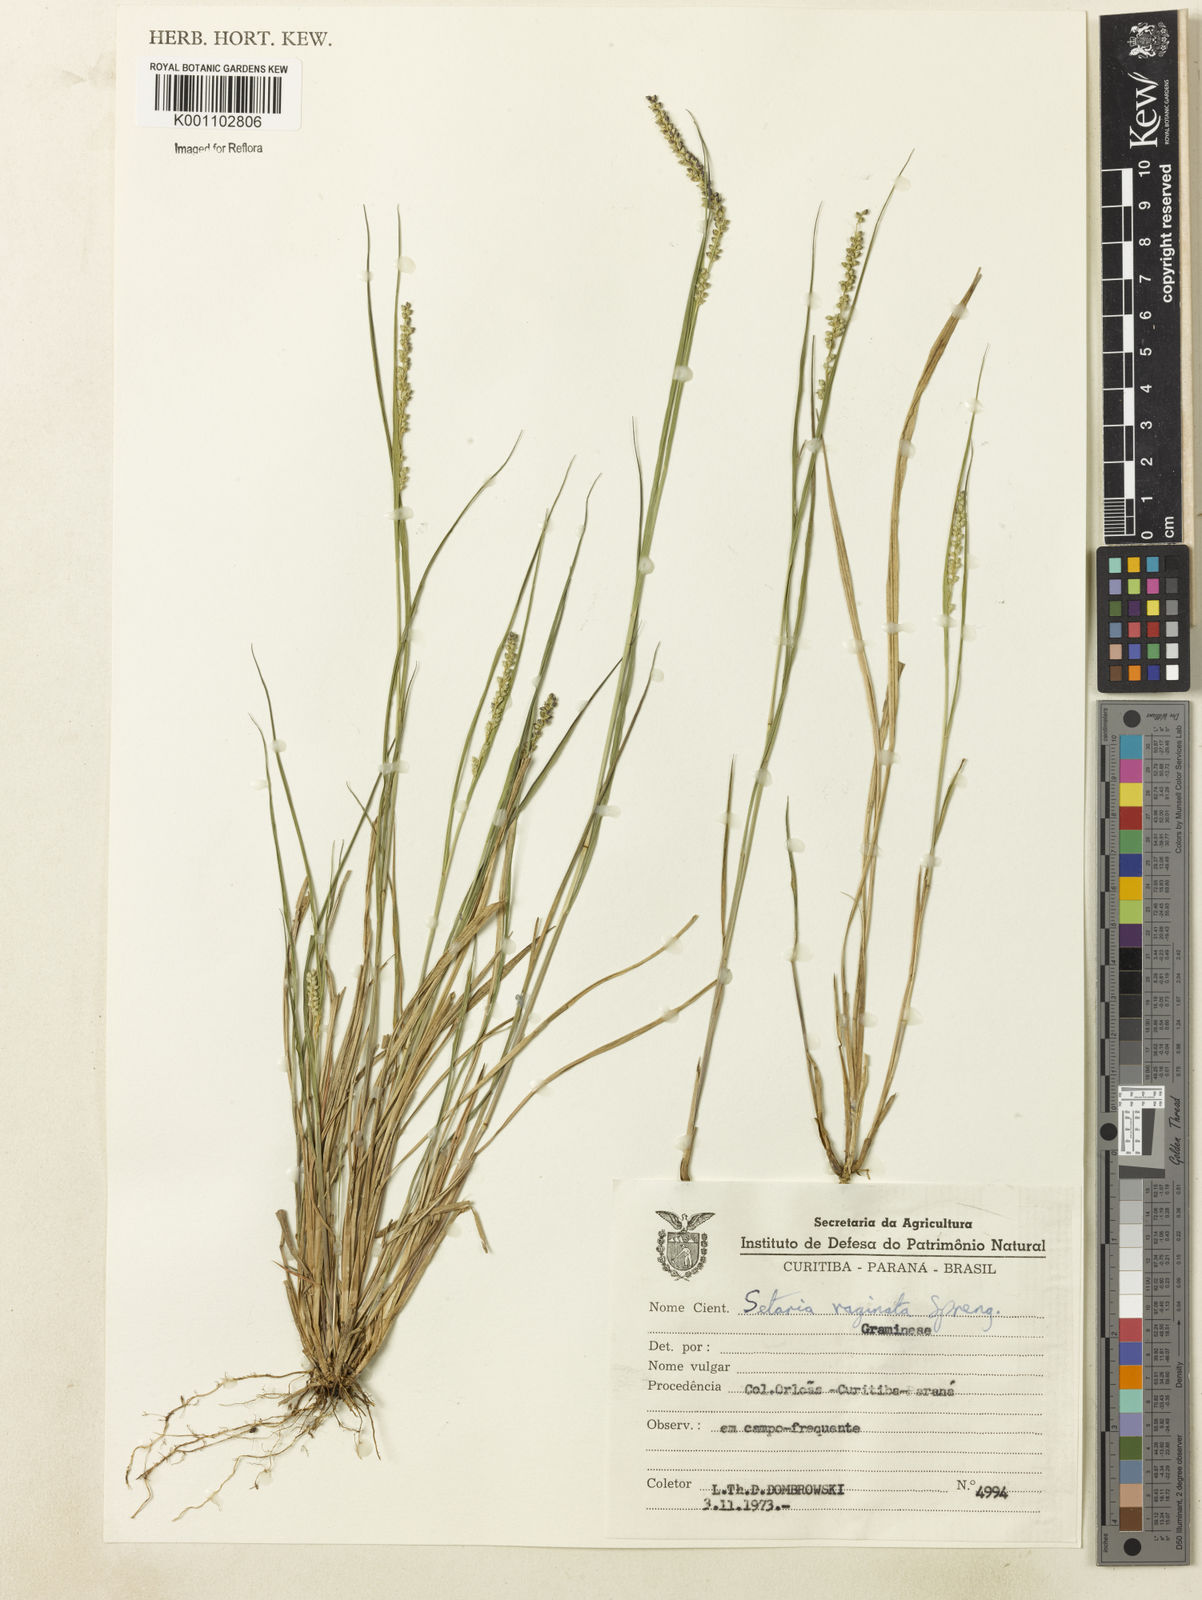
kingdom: Plantae
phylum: Tracheophyta
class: Liliopsida
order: Poales
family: Poaceae
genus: Setaria
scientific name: Setaria setosa
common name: West indies bristle grass
